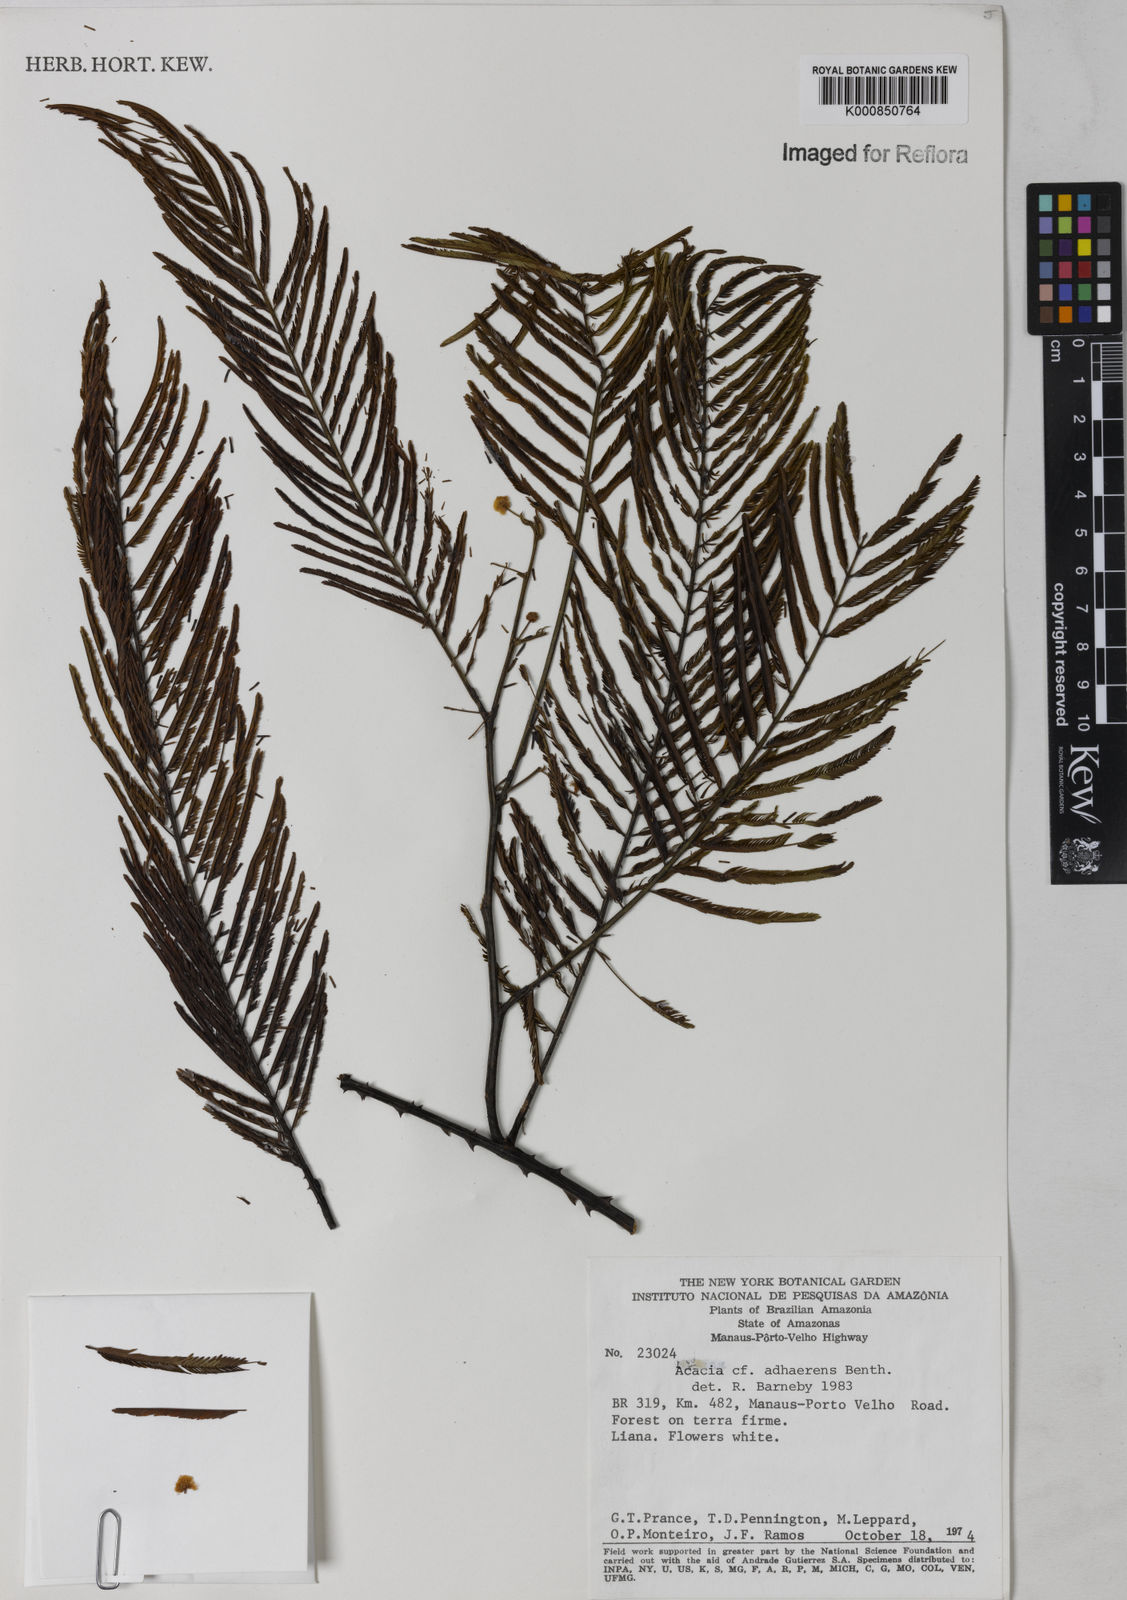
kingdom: Plantae
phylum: Tracheophyta
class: Magnoliopsida
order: Fabales
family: Fabaceae
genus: Senegalia
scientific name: Senegalia martiusiana
